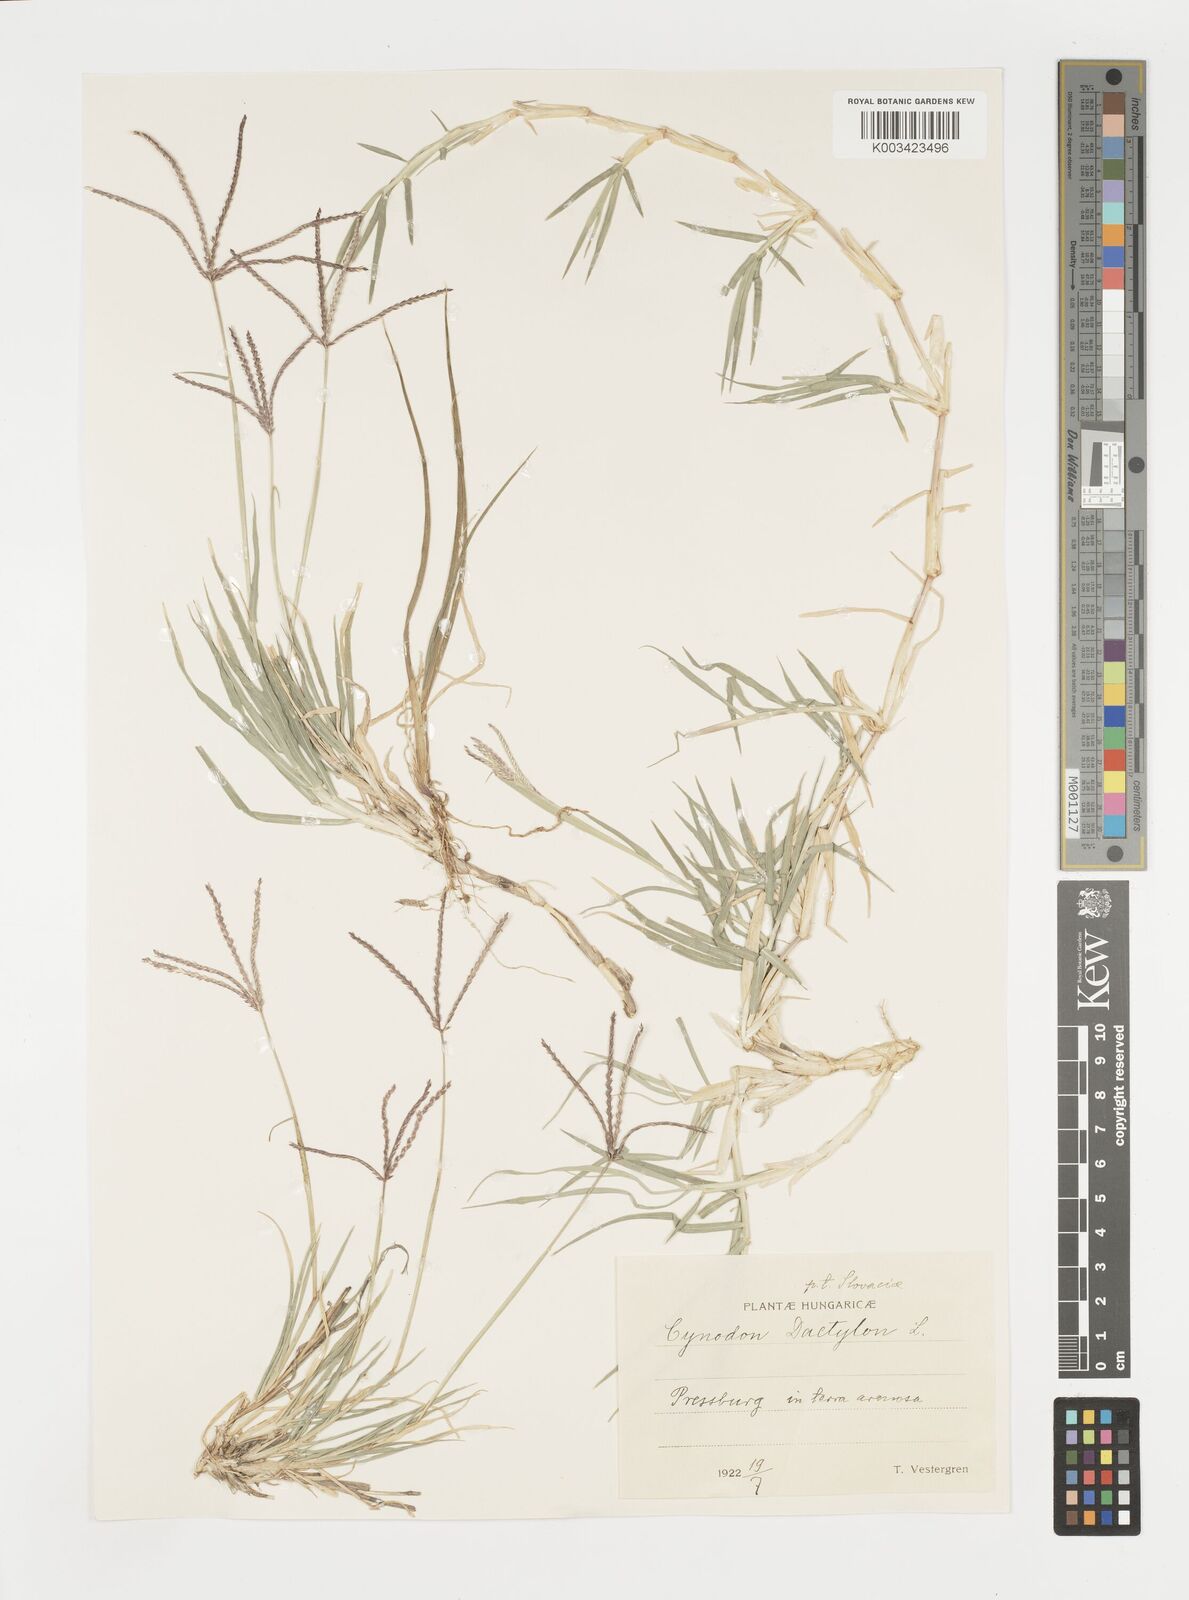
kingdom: Plantae
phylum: Tracheophyta
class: Liliopsida
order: Poales
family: Poaceae
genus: Cynodon
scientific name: Cynodon dactylon
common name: Bermuda grass
